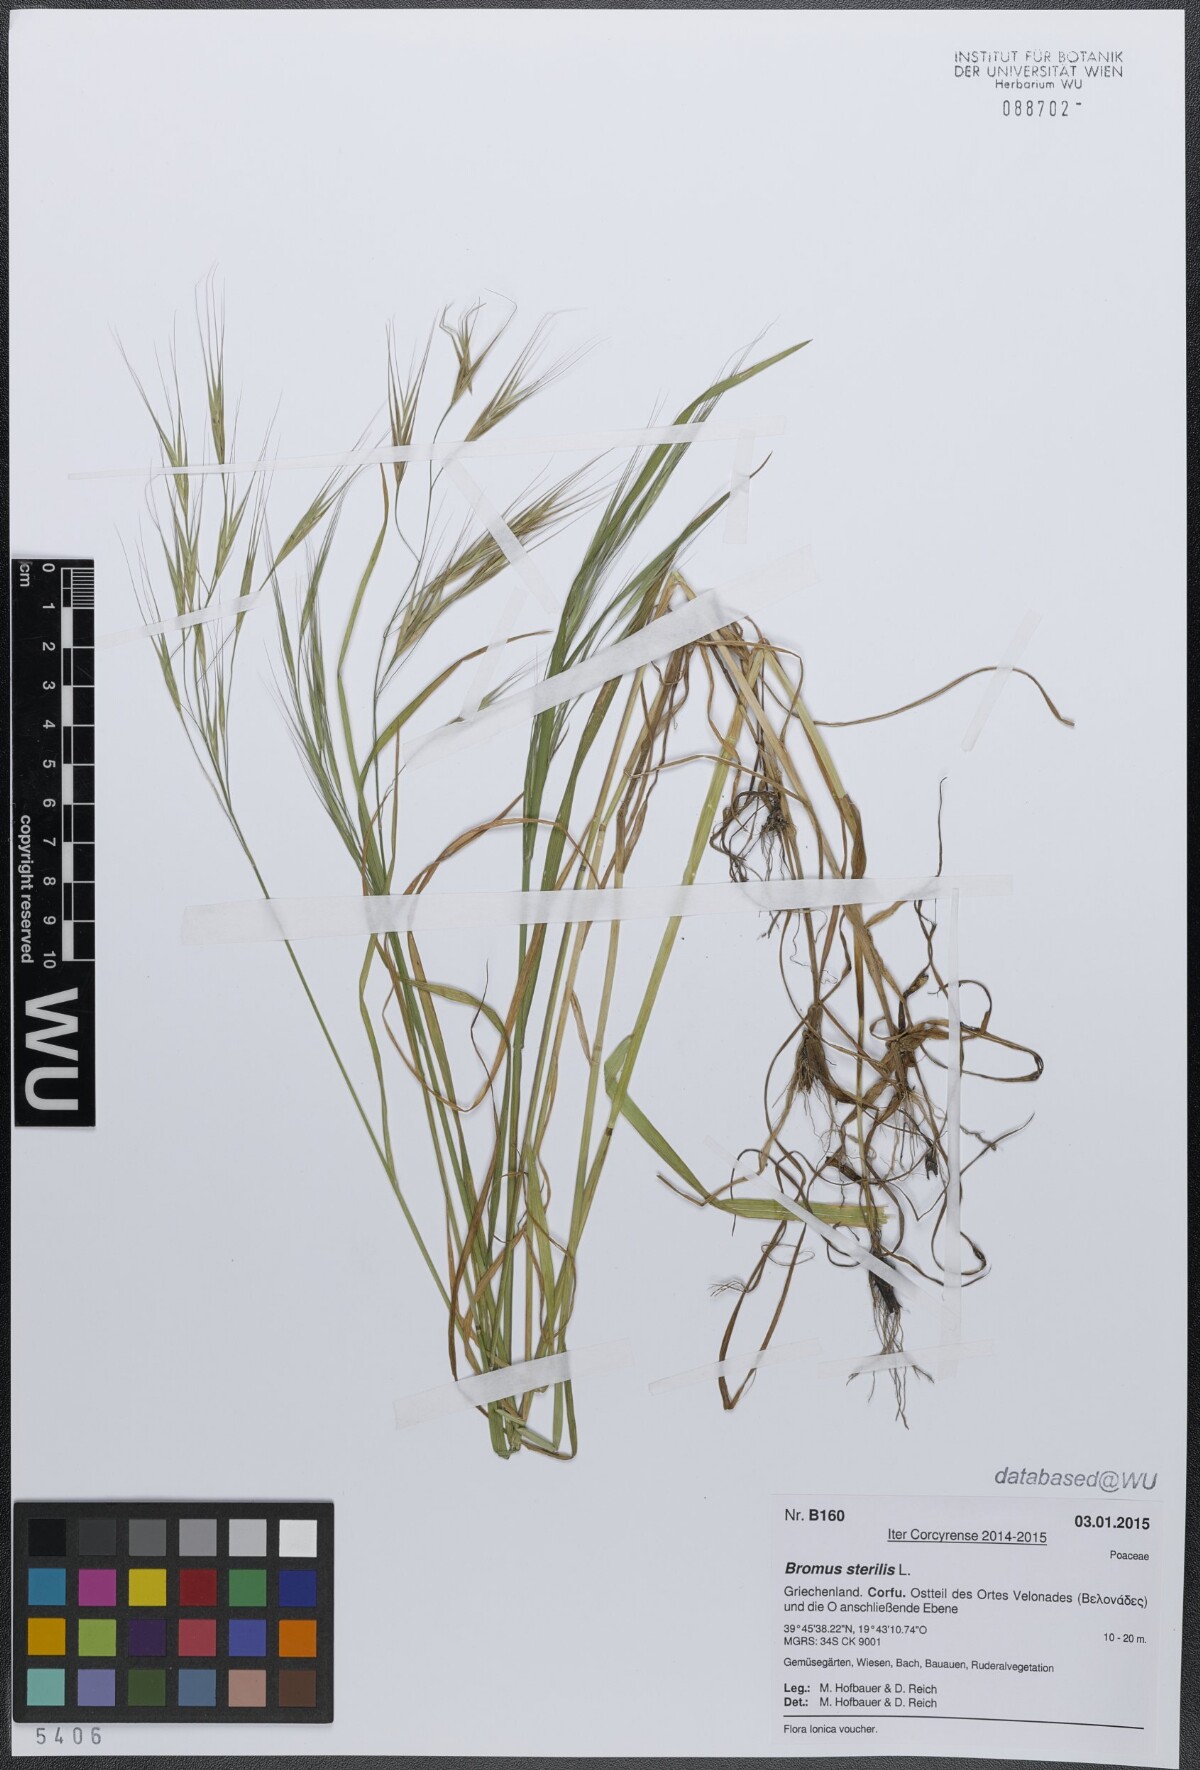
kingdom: Plantae
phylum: Tracheophyta
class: Liliopsida
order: Poales
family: Poaceae
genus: Bromus
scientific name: Bromus sterilis
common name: Poverty brome
